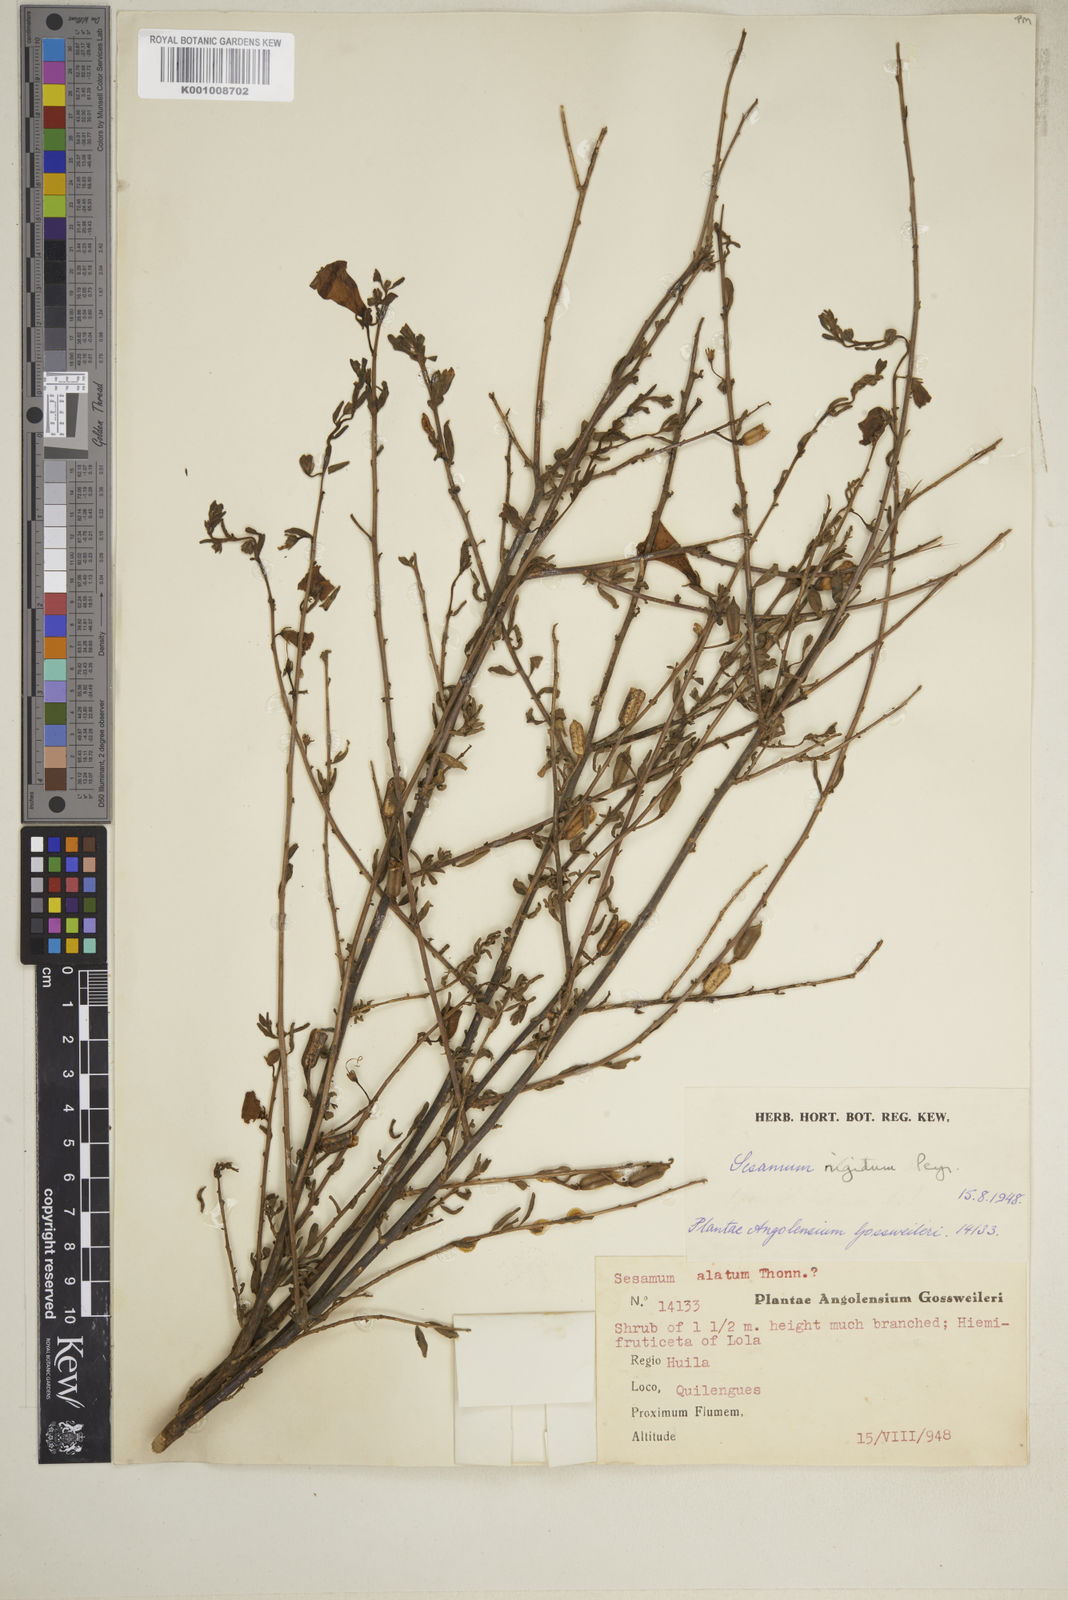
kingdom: Plantae
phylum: Tracheophyta
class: Magnoliopsida
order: Lamiales
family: Pedaliaceae
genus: Sesamum
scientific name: Sesamum rigidum
